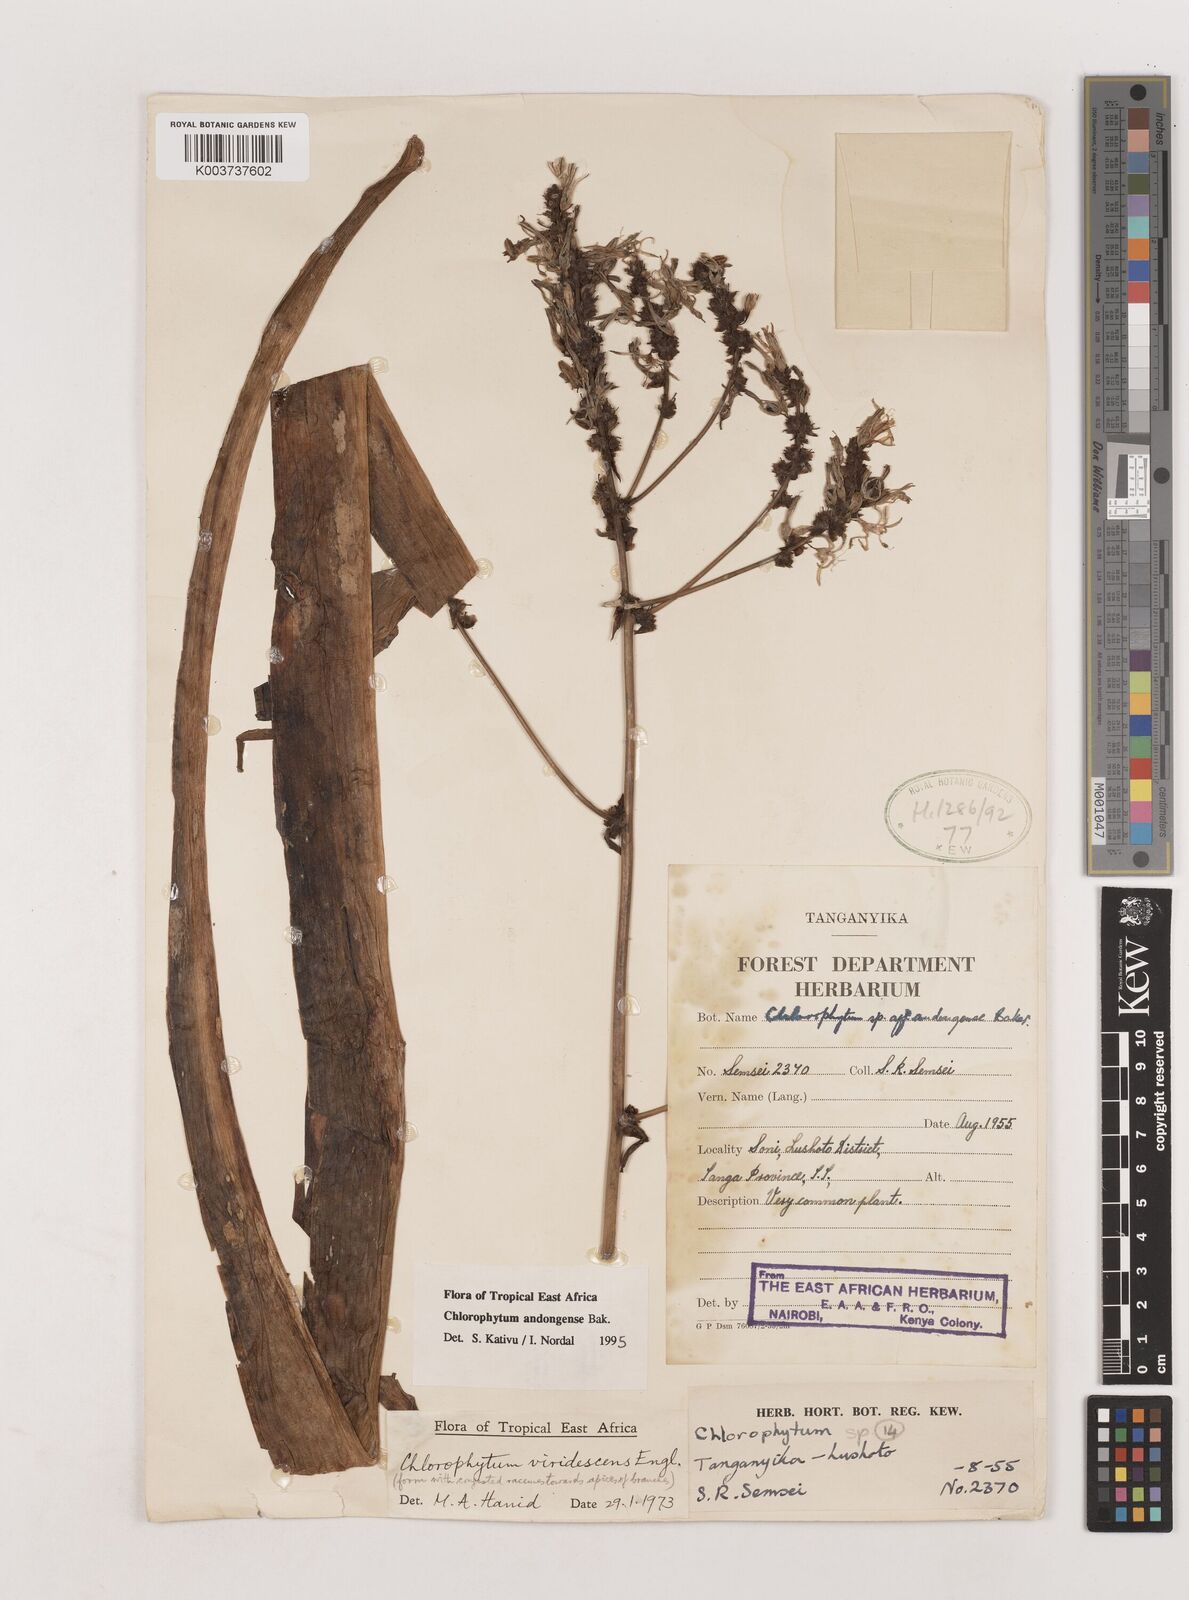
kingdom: Plantae
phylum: Tracheophyta
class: Liliopsida
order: Asparagales
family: Asparagaceae
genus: Chlorophytum
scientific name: Chlorophytum andongense
